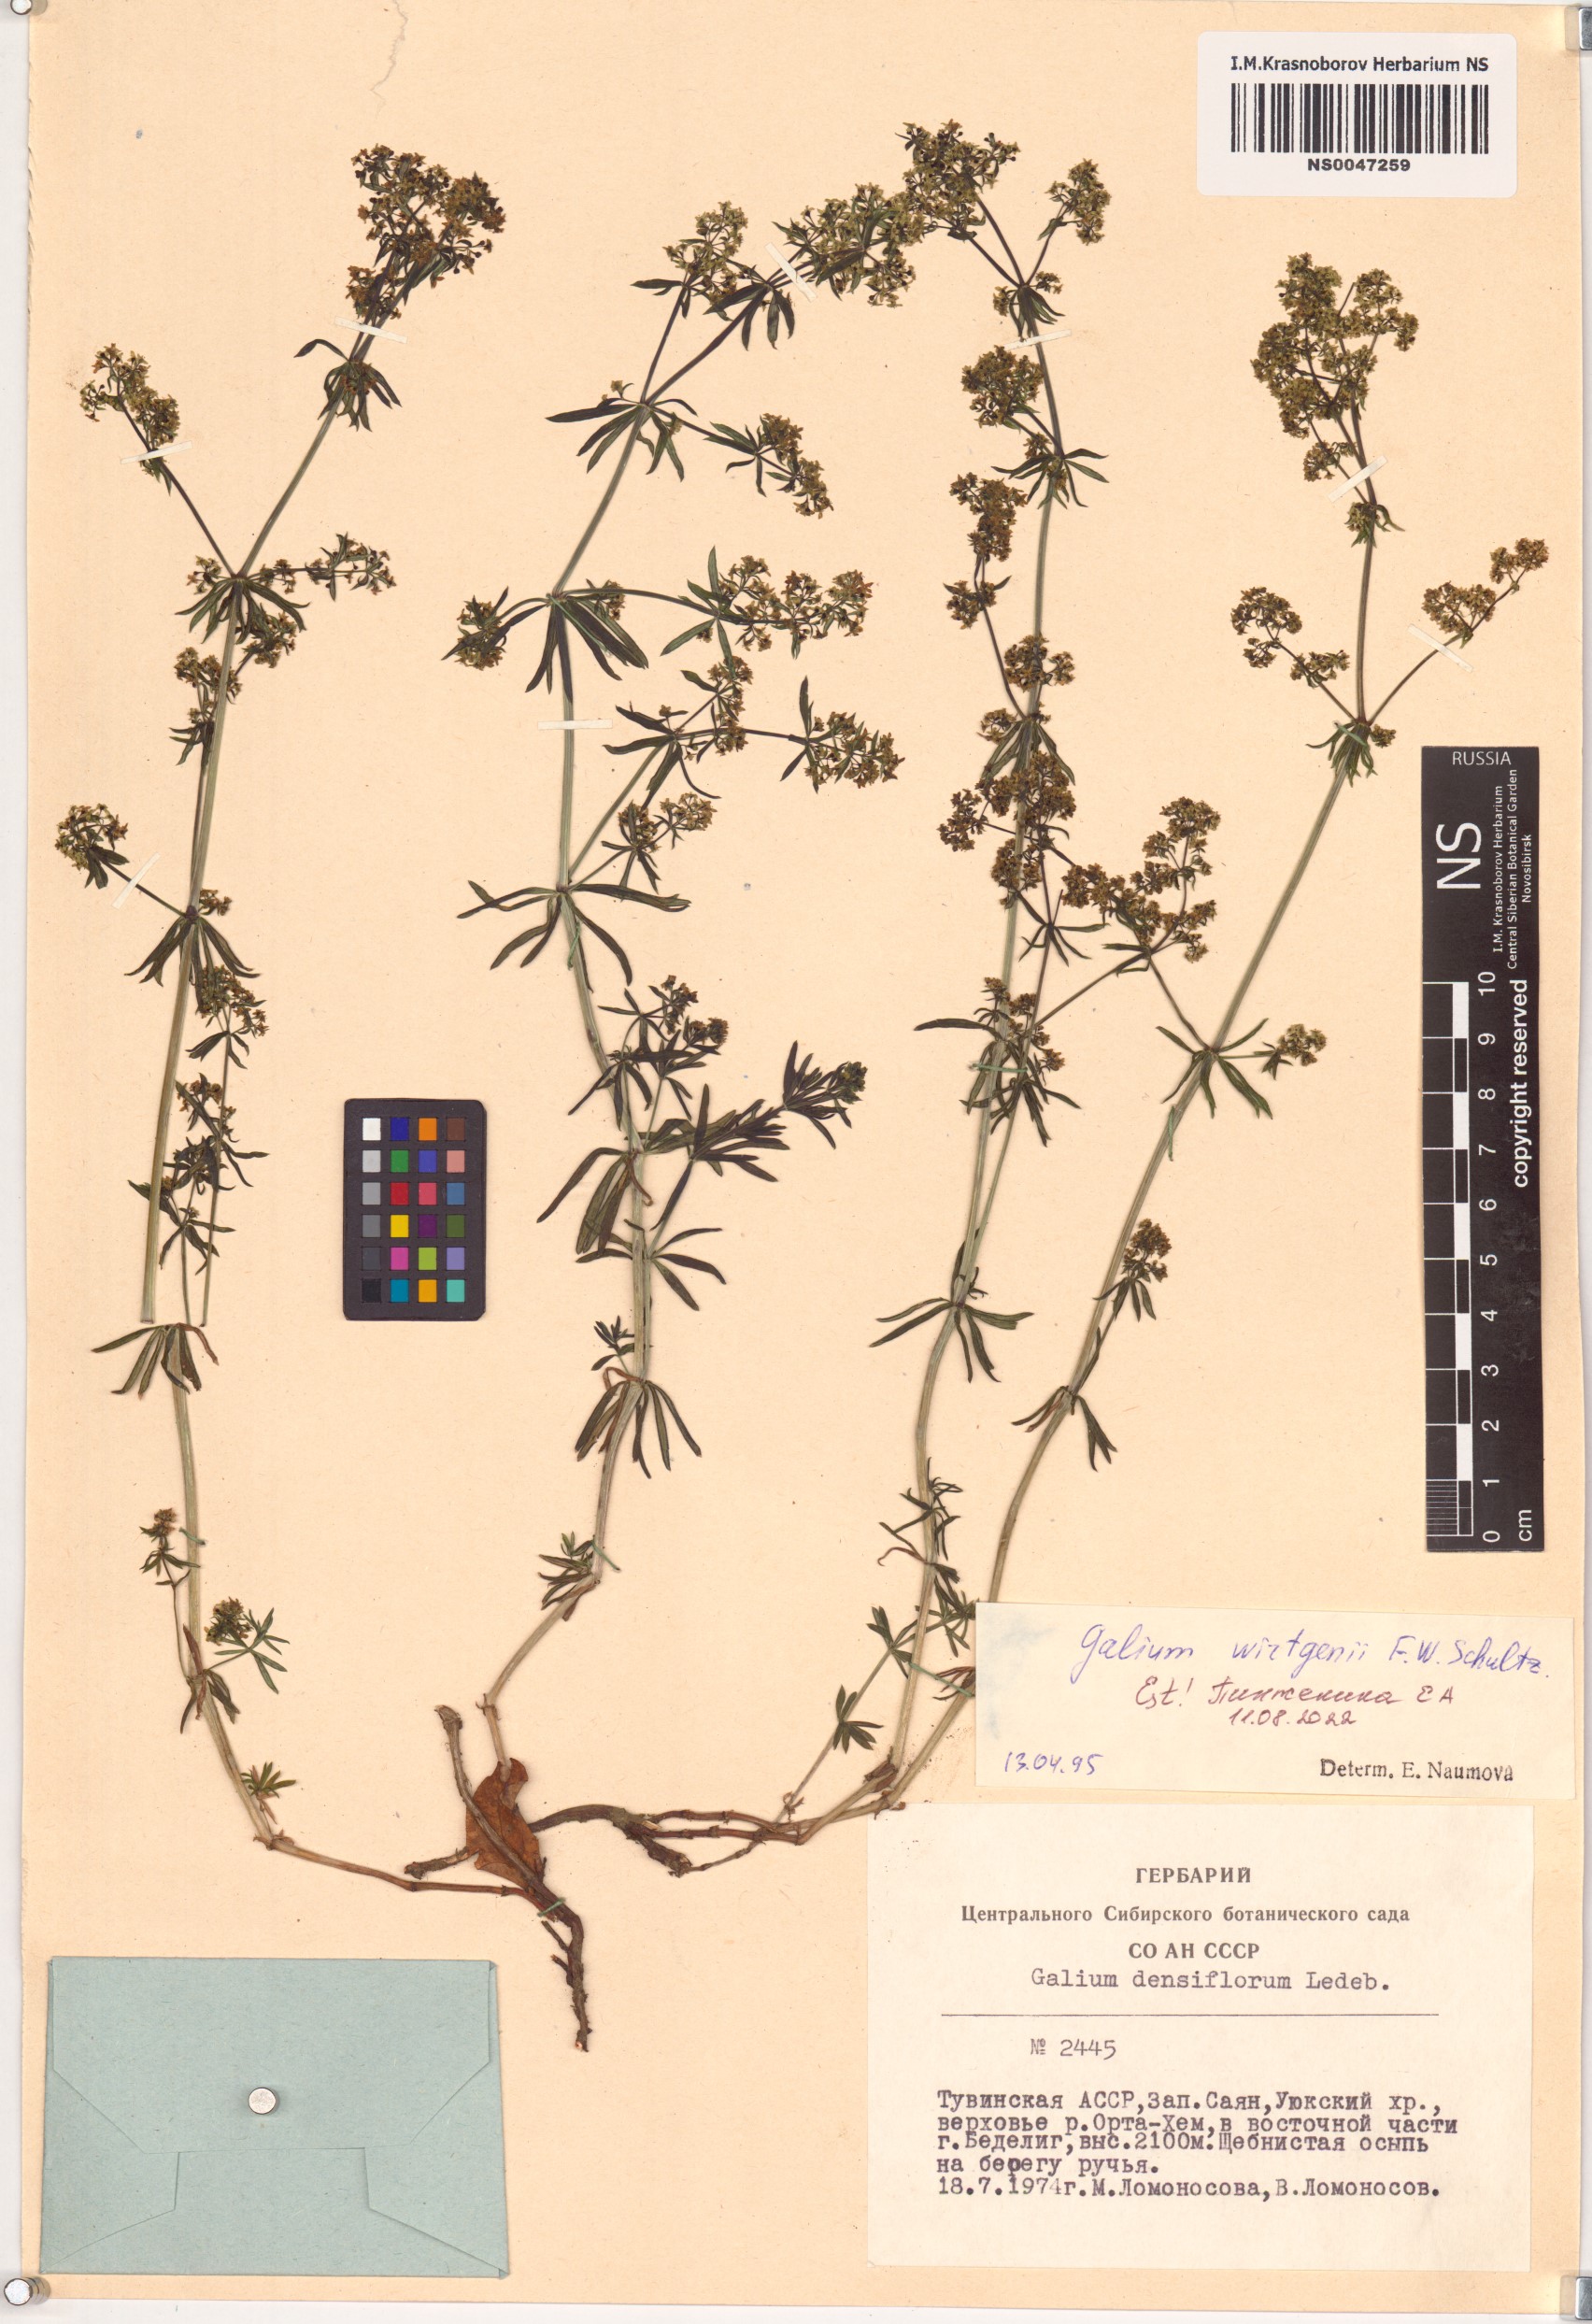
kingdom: Plantae
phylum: Tracheophyta
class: Magnoliopsida
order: Gentianales
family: Rubiaceae
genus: Galium
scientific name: Galium verum
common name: Lady's bedstraw
